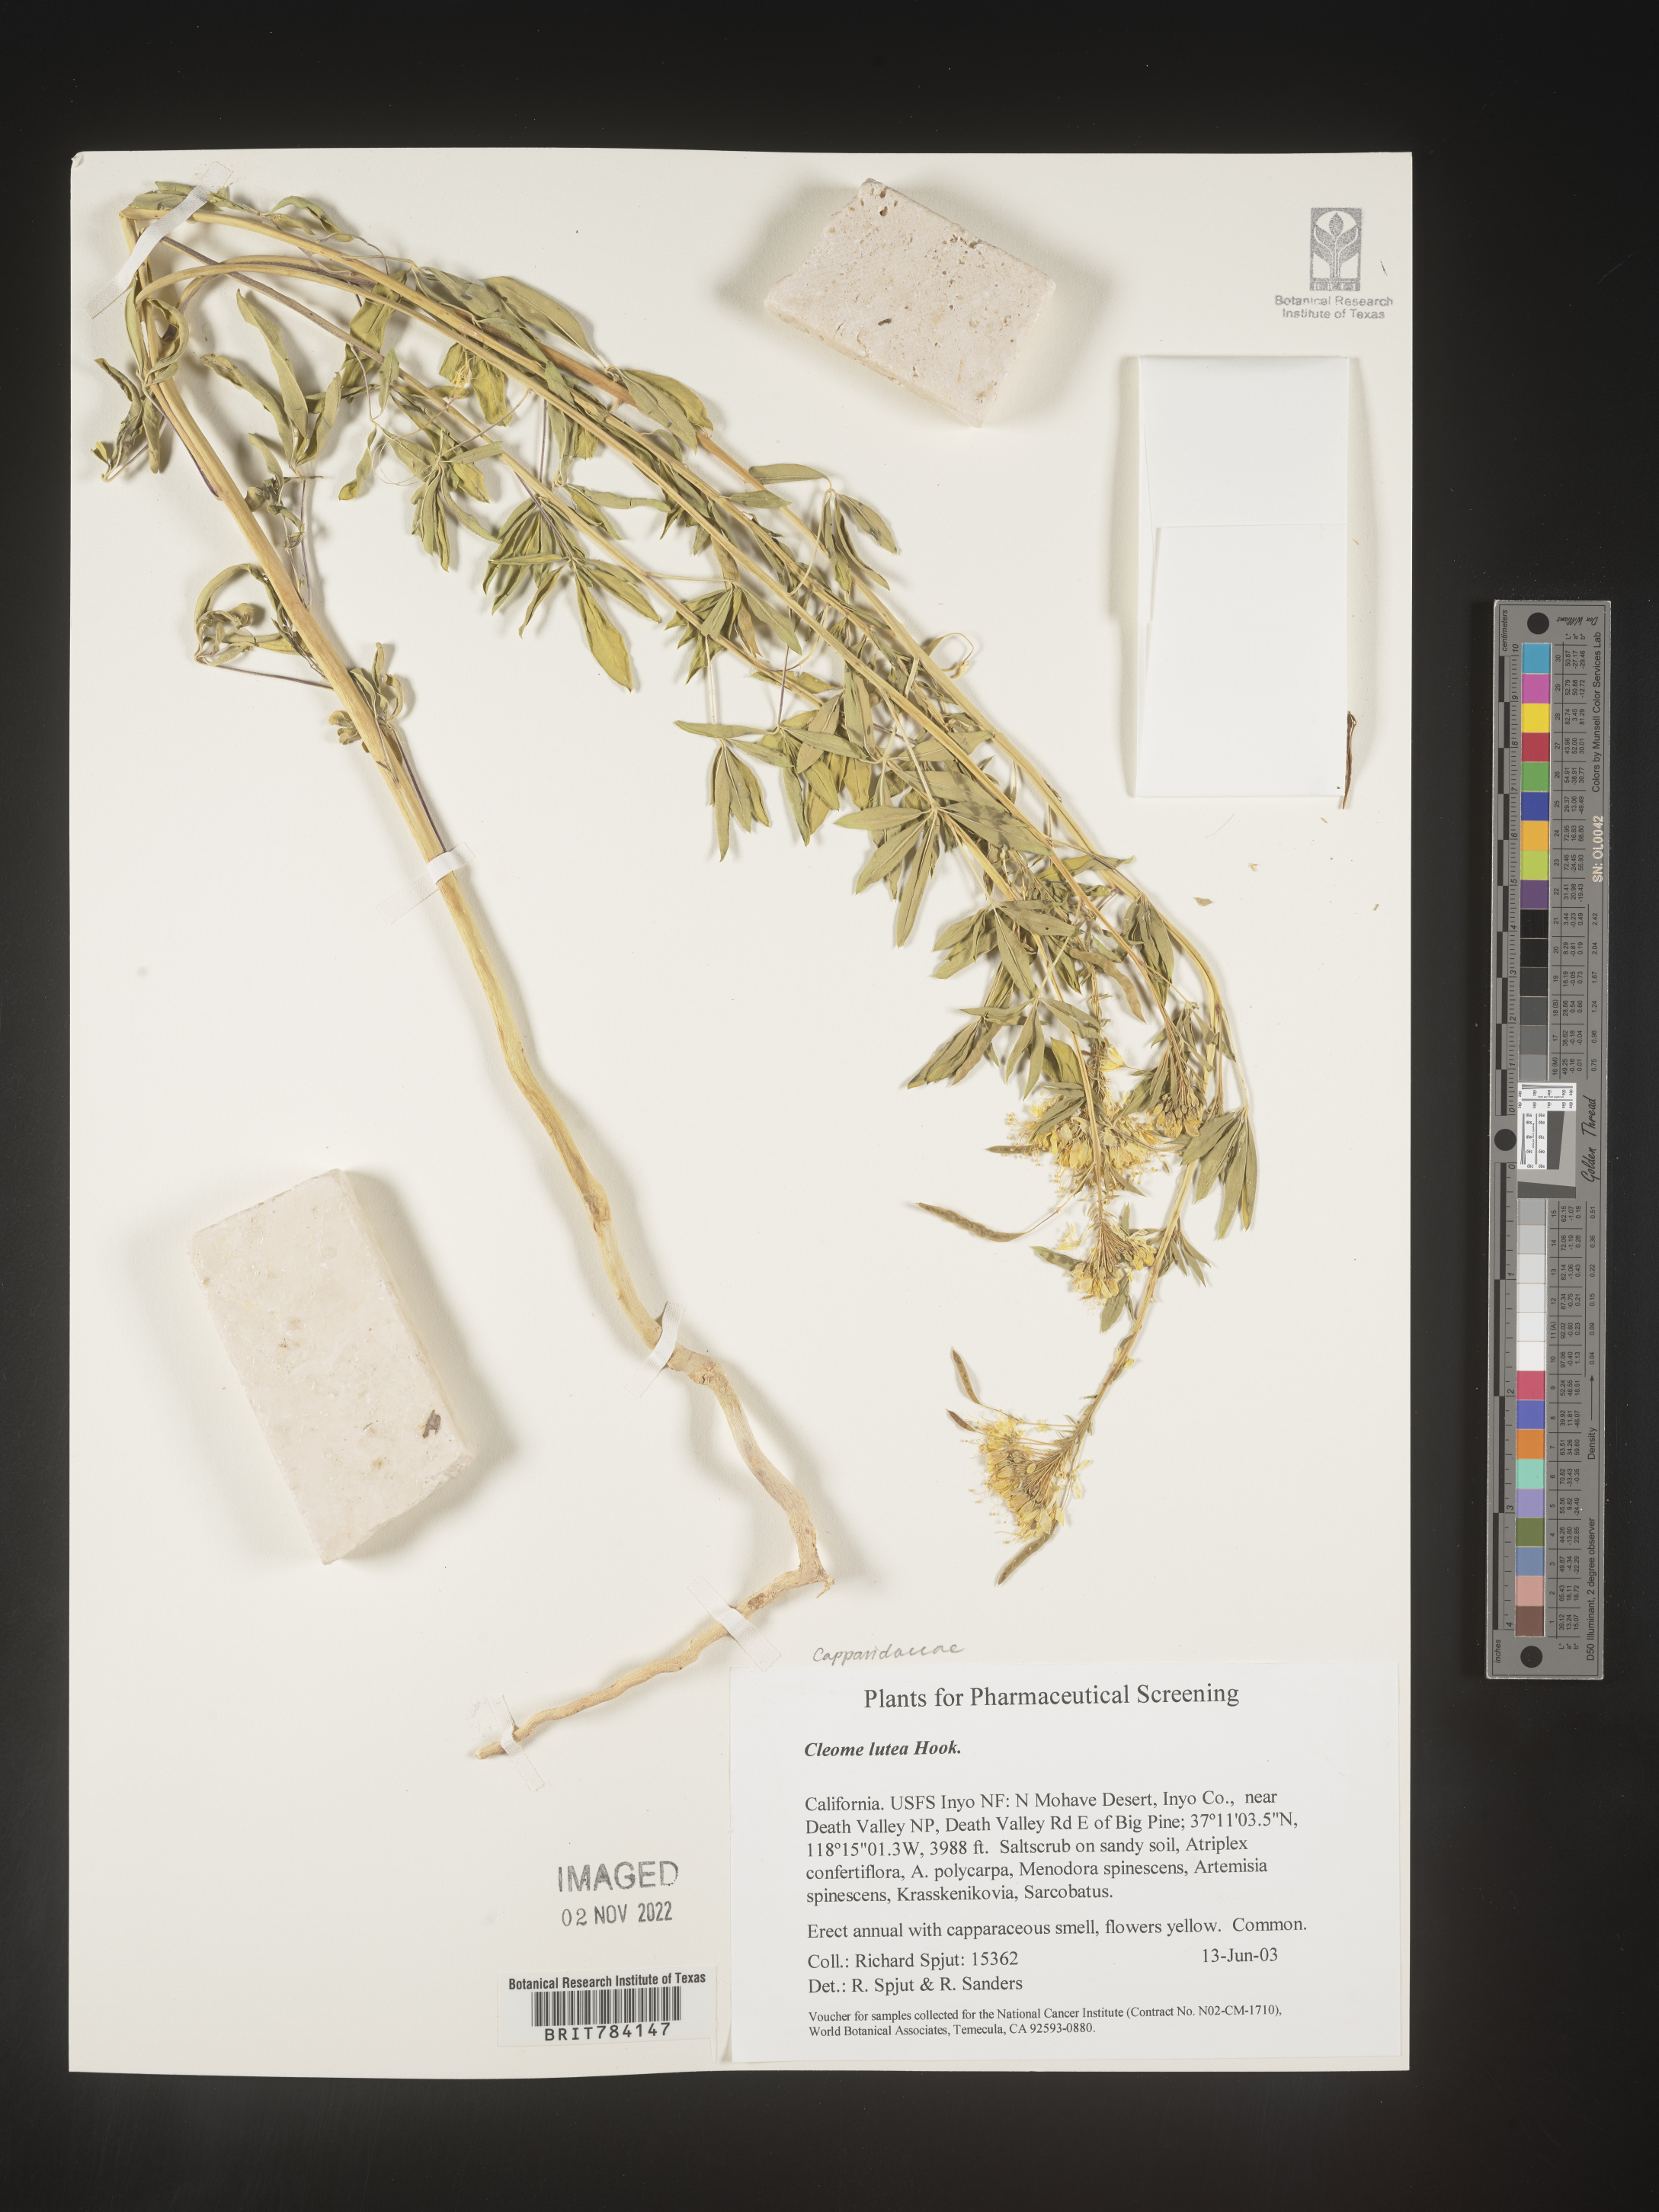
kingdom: Plantae
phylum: Tracheophyta
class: Magnoliopsida
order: Brassicales
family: Cleomaceae
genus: Cleomella
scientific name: Cleomella lutea
